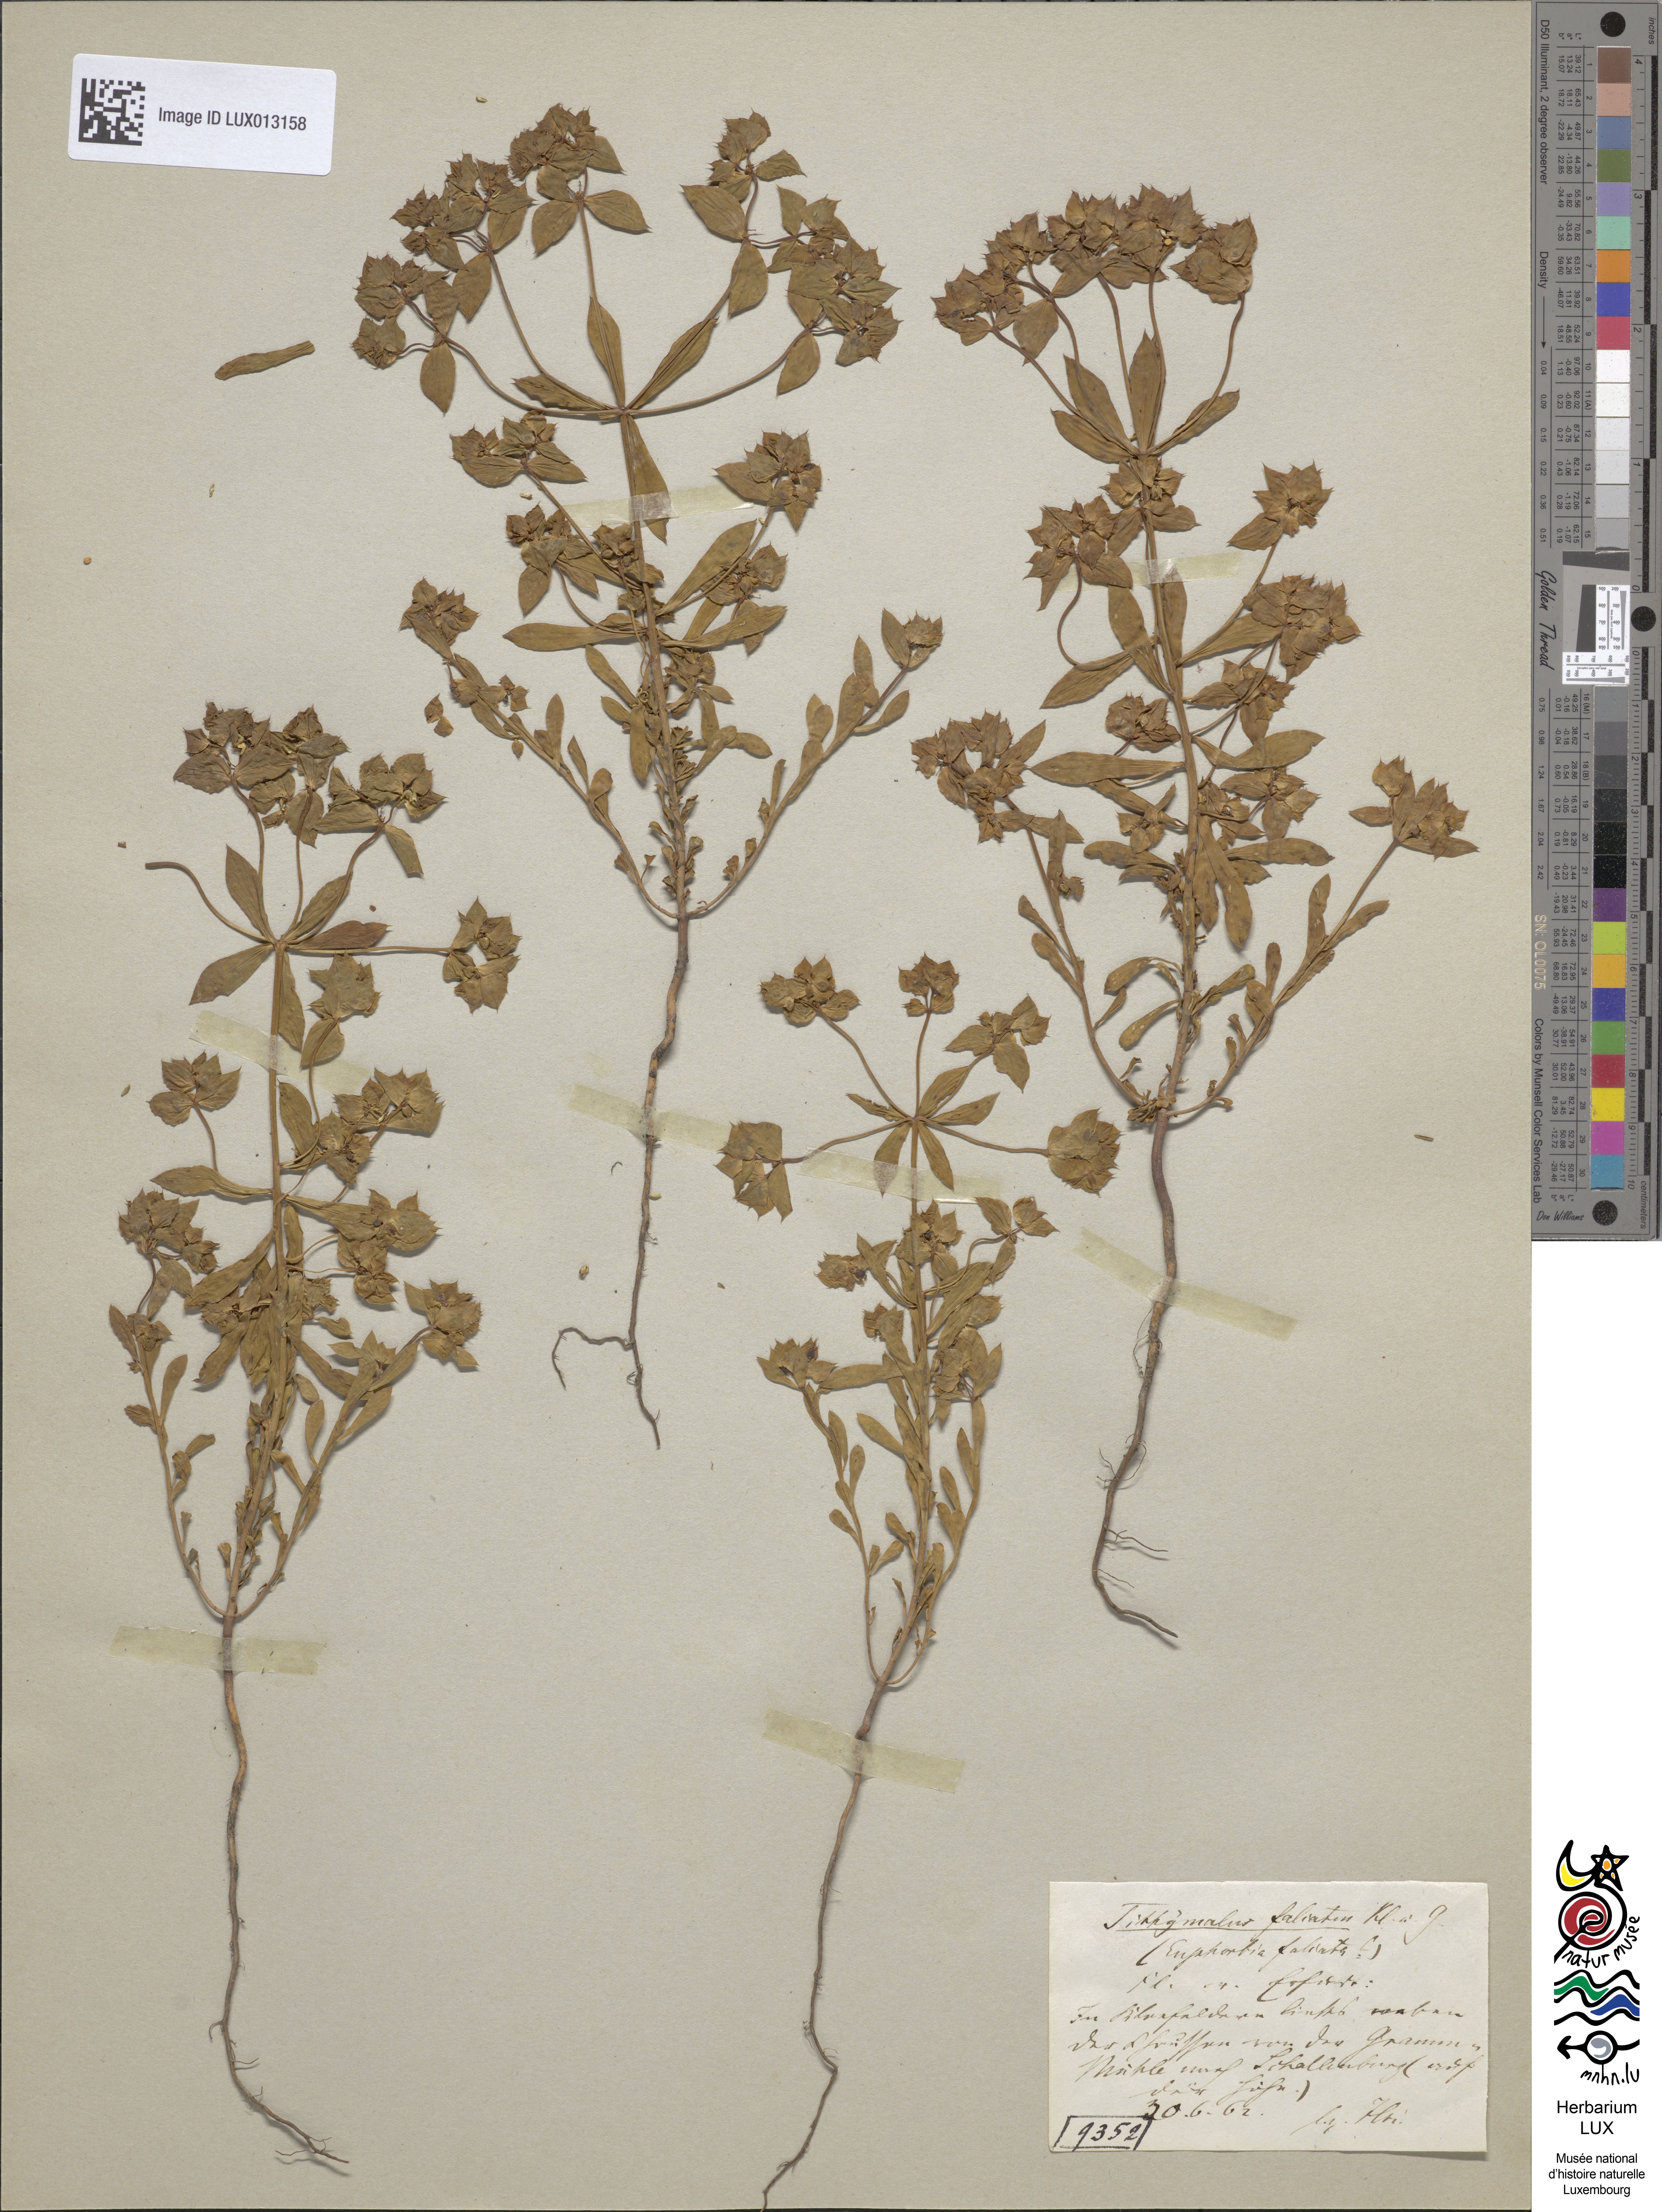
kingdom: Plantae
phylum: Tracheophyta
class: Magnoliopsida
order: Malpighiales
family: Euphorbiaceae
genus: Euphorbia
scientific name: Euphorbia falcata
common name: Sickle spurge
